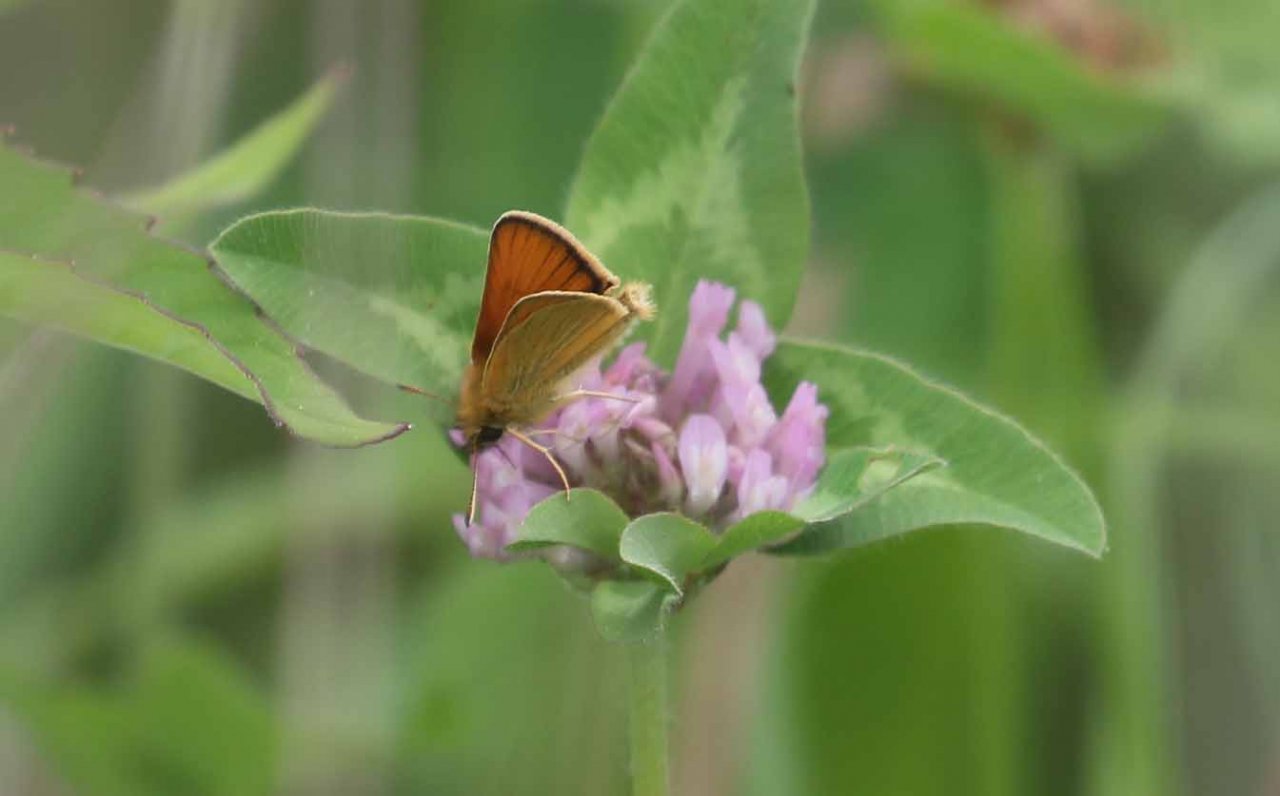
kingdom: Animalia
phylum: Arthropoda
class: Insecta
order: Lepidoptera
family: Hesperiidae
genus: Thymelicus
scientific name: Thymelicus lineola
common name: European Skipper
